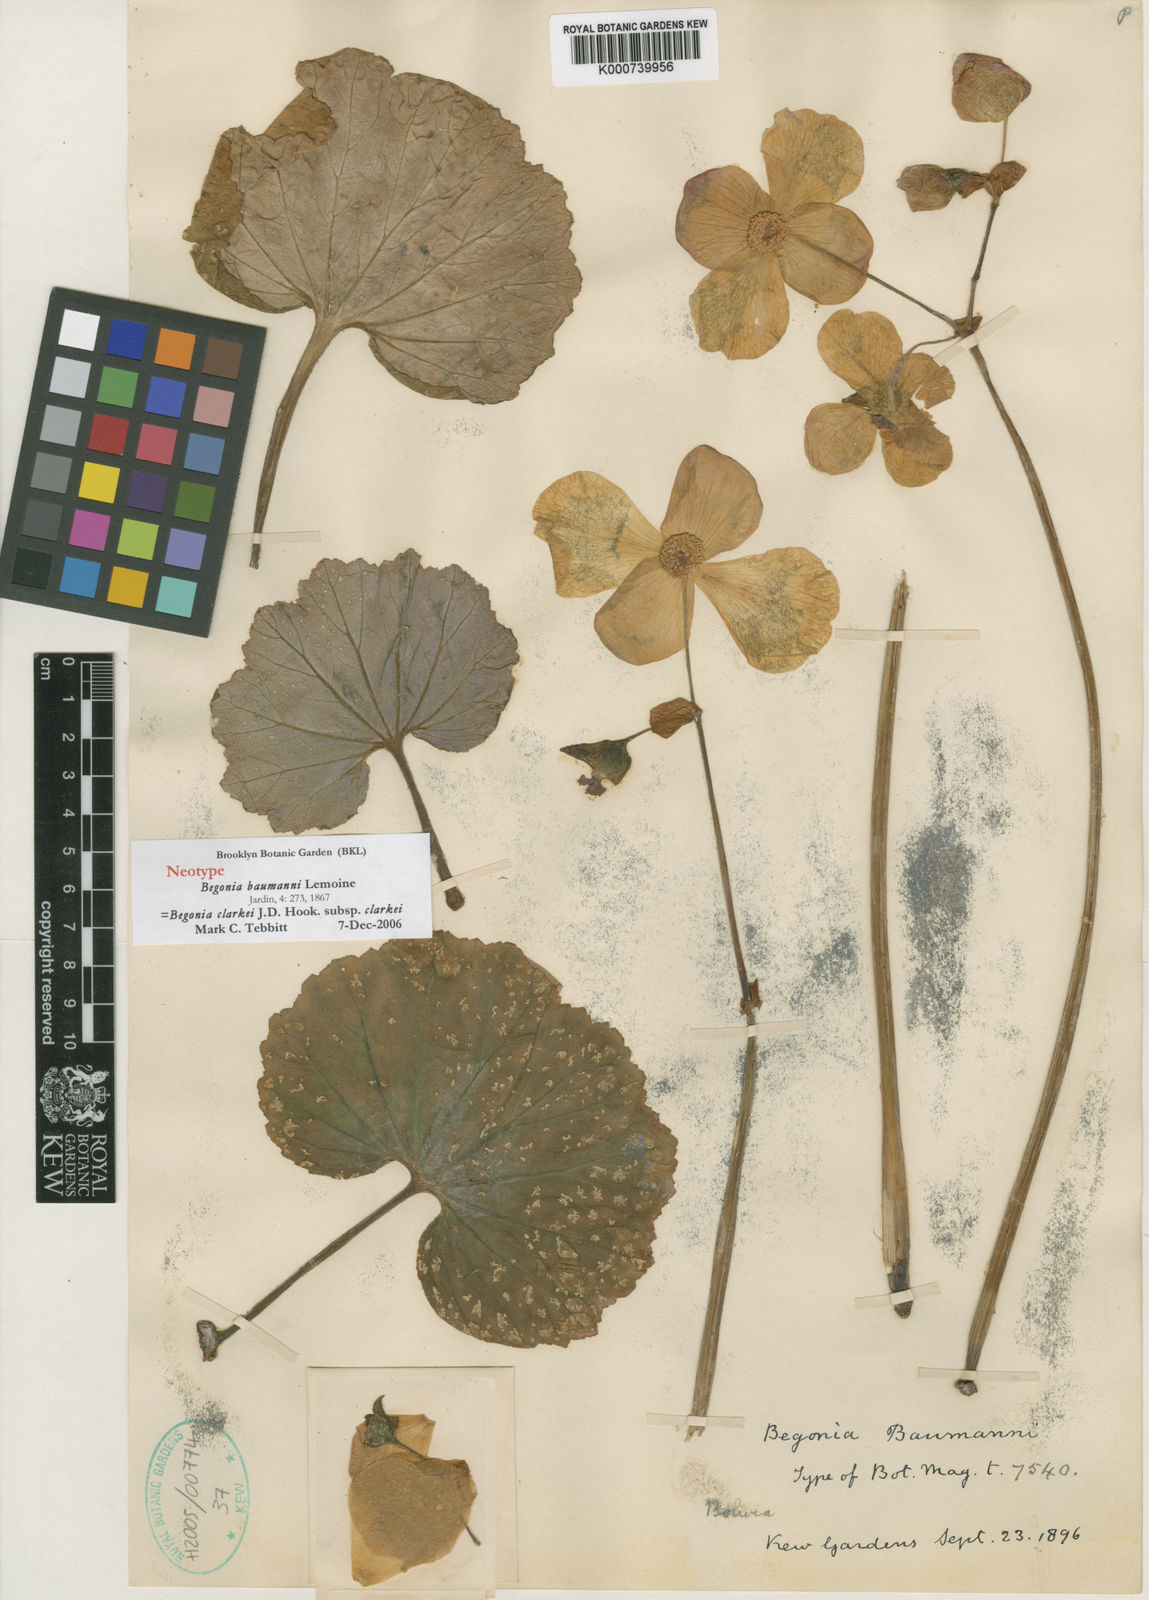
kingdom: Plantae
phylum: Tracheophyta
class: Magnoliopsida
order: Cucurbitales
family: Begoniaceae
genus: Begonia
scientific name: Begonia clarkei
